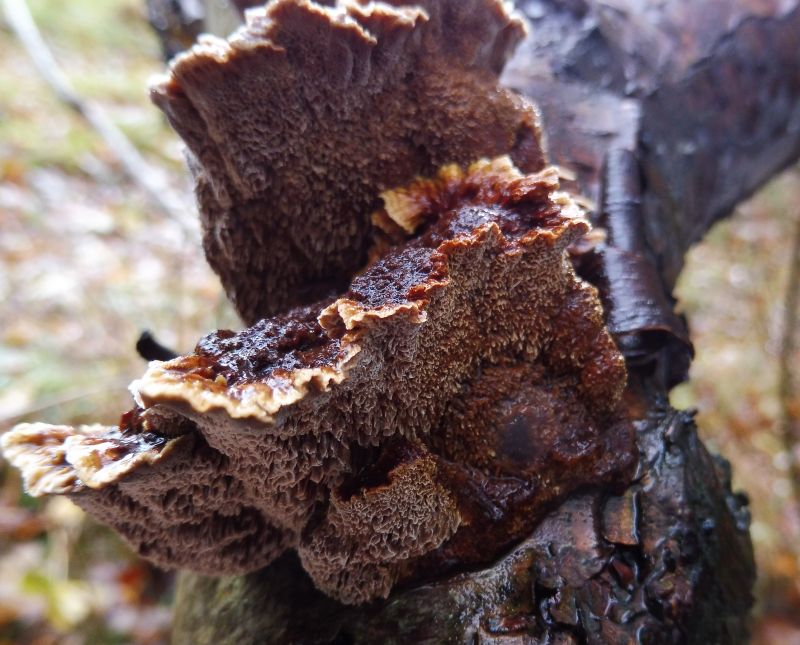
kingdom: Fungi
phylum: Basidiomycota
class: Agaricomycetes
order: Hymenochaetales
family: Hymenochaetaceae
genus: Xanthoporia
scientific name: Xanthoporia radiata
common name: elle-spejlporesvamp
